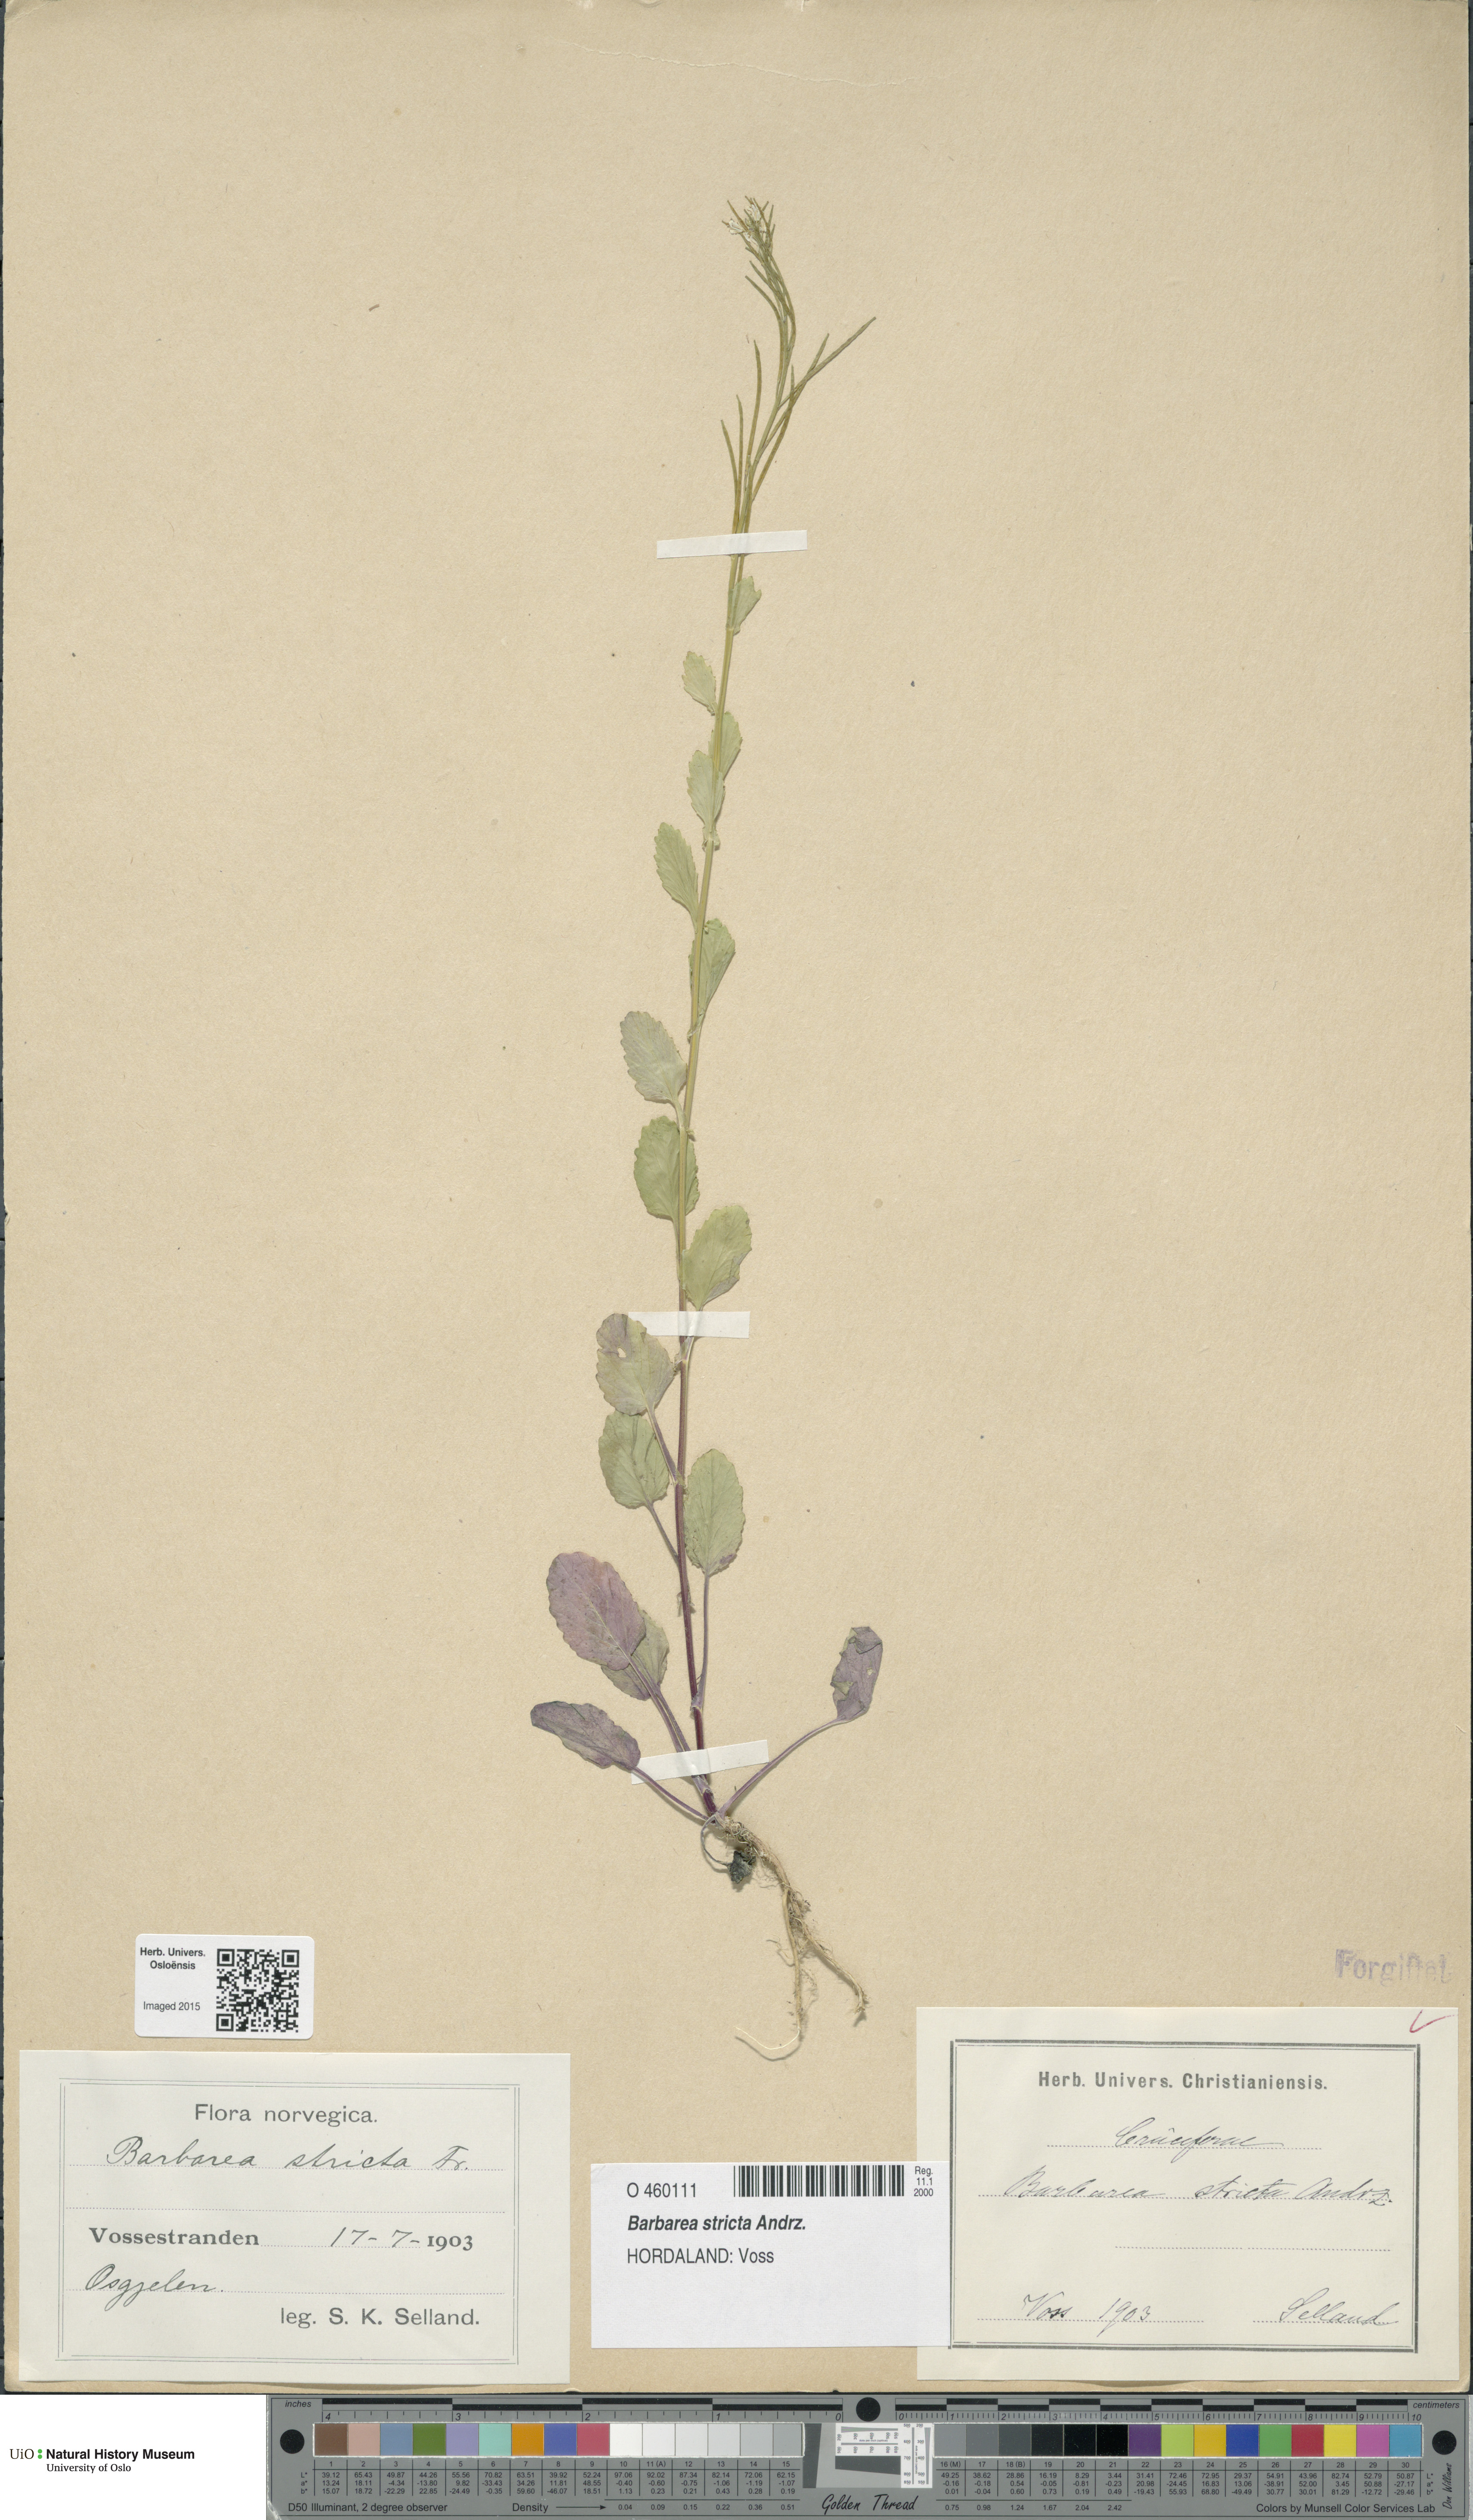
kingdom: Plantae
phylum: Tracheophyta
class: Magnoliopsida
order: Brassicales
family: Brassicaceae
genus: Barbarea
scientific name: Barbarea stricta
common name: Small-flowered winter-cress
